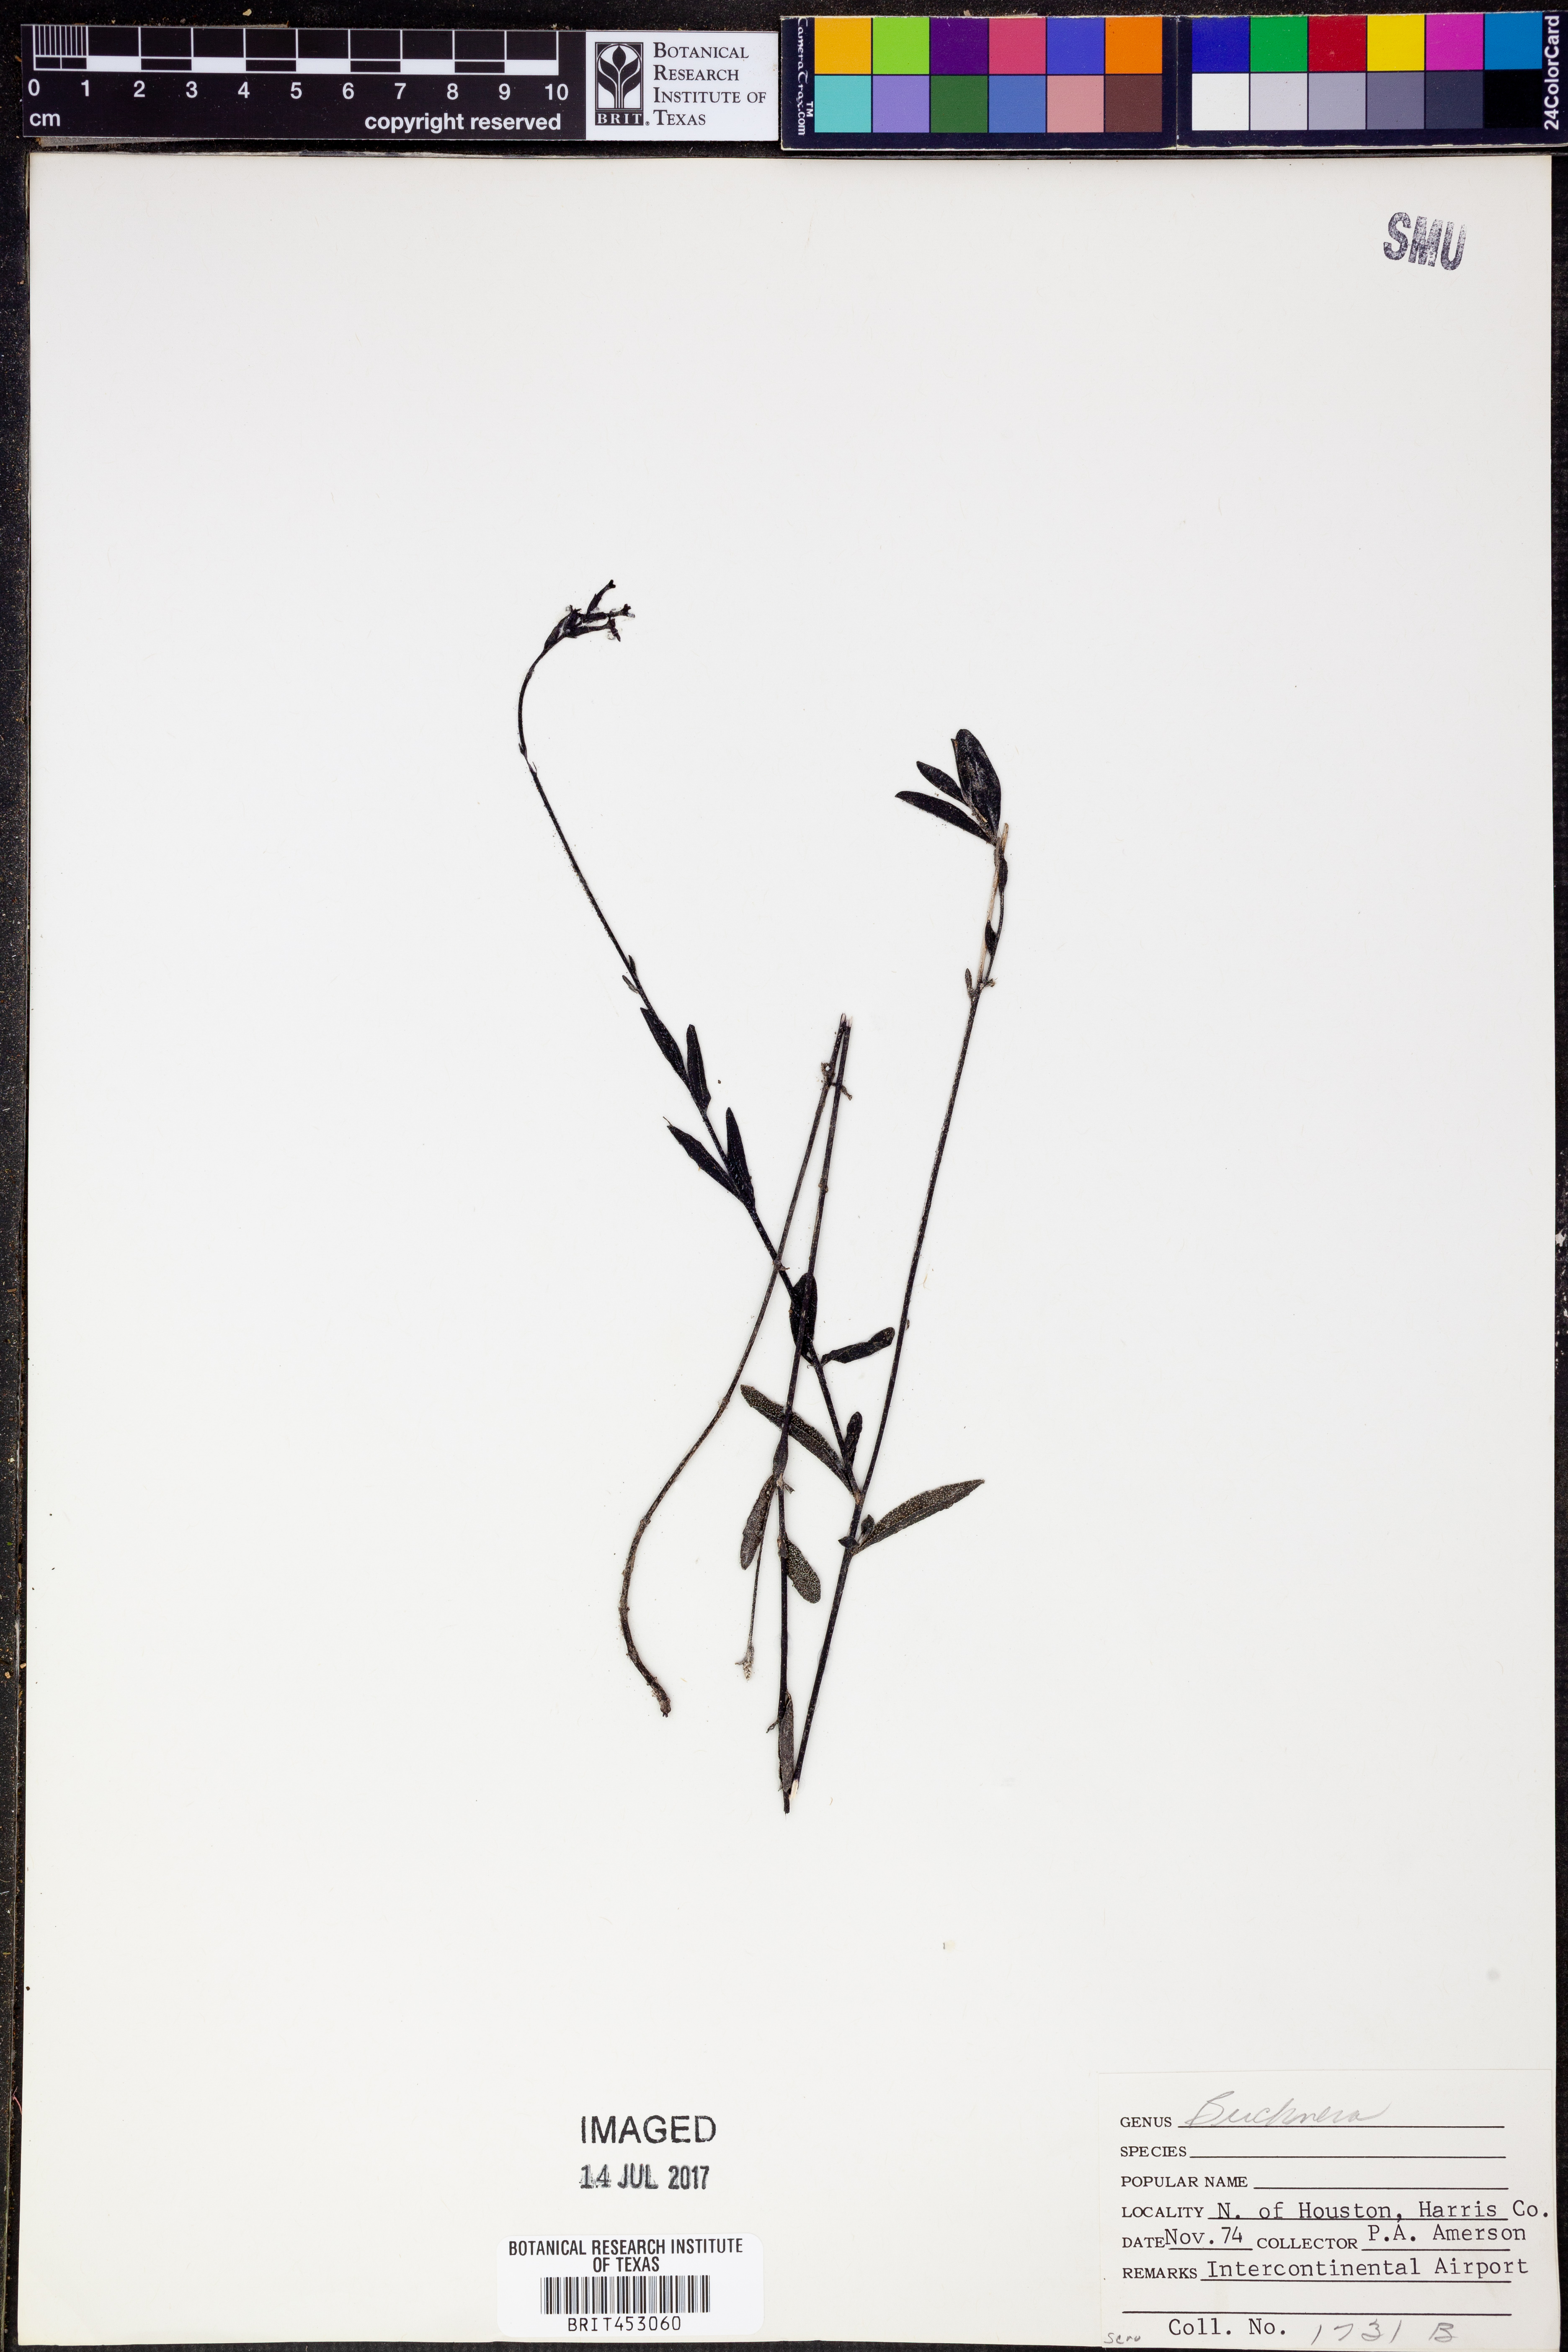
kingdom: Plantae
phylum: Tracheophyta
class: Magnoliopsida
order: Lamiales
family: Orobanchaceae
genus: Buchnera
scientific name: Buchnera
